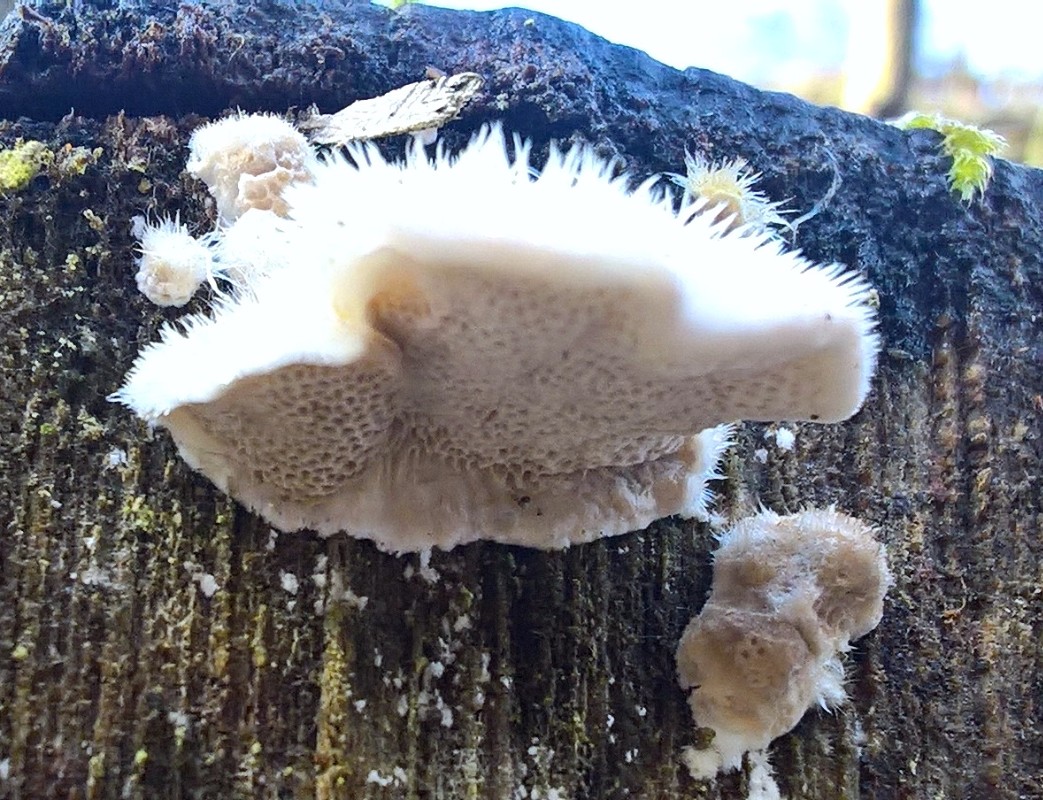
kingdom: Fungi
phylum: Basidiomycota
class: Agaricomycetes
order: Polyporales
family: Polyporaceae
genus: Trametes
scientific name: Trametes hirsuta
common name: håret læderporesvamp
